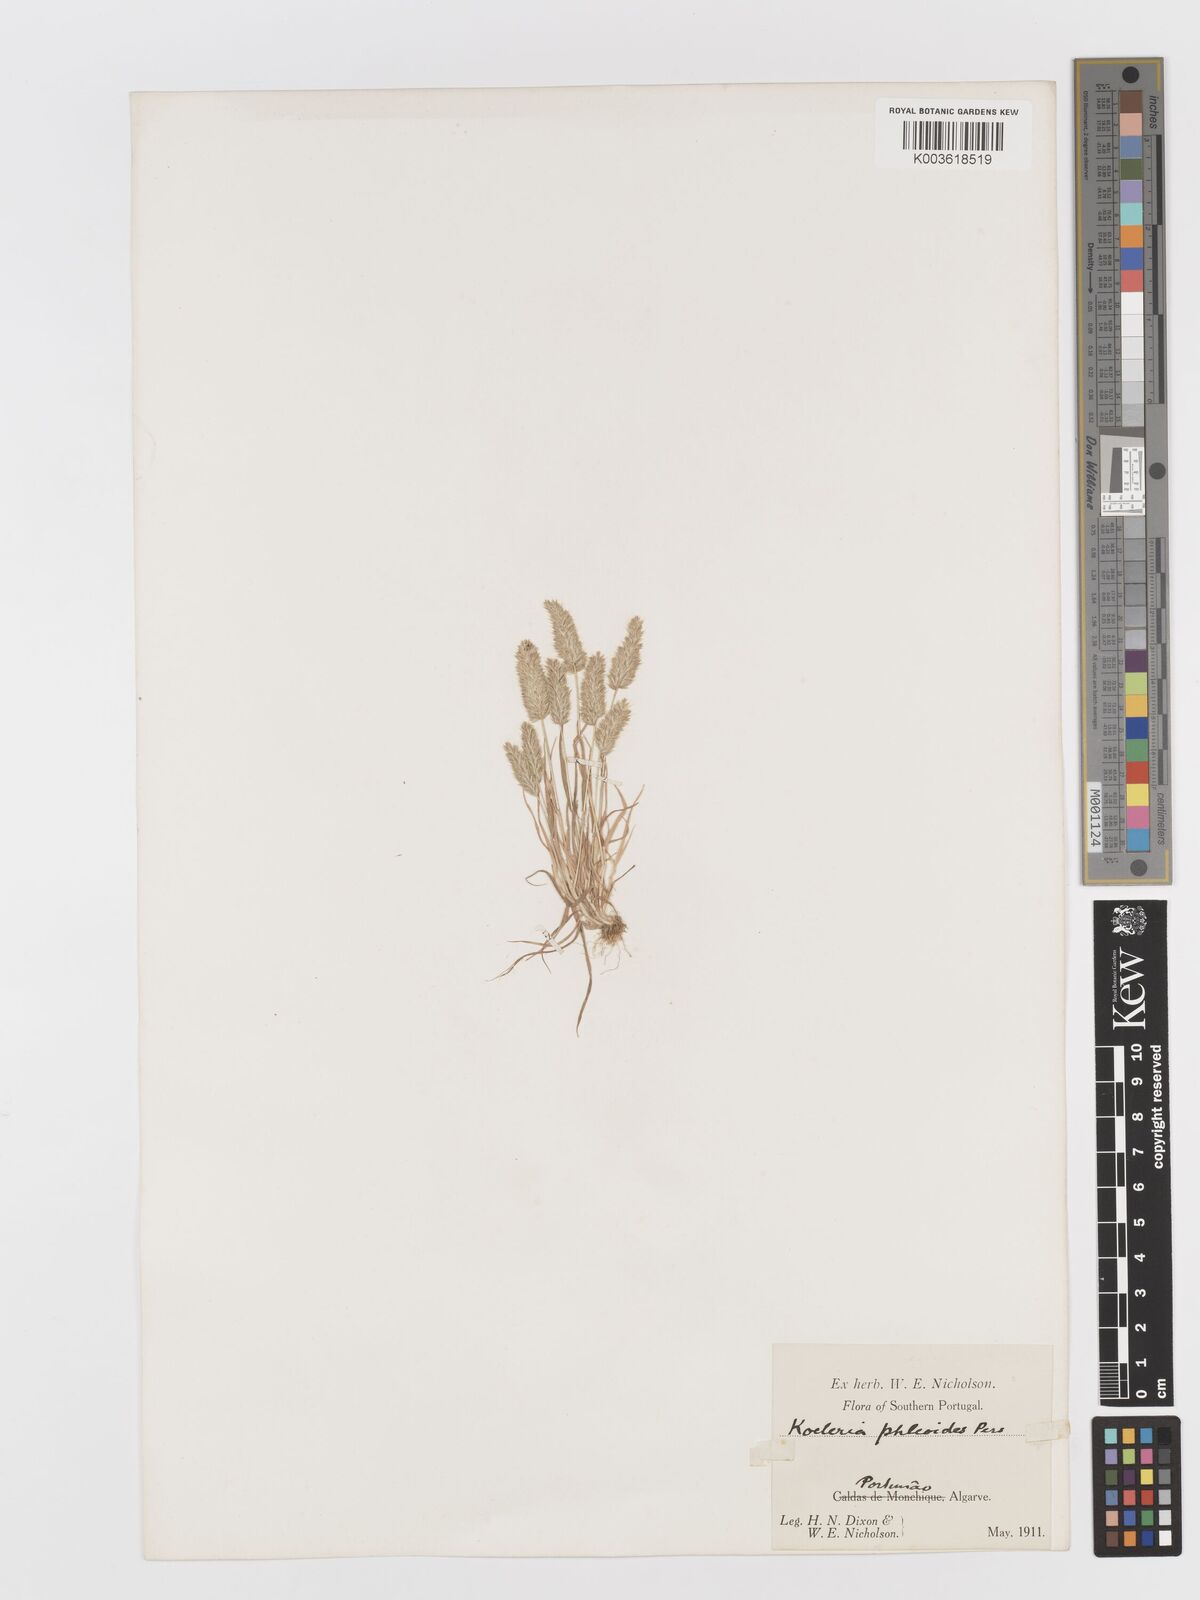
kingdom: Plantae
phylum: Tracheophyta
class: Liliopsida
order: Poales
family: Poaceae
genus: Rostraria
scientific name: Rostraria cristata
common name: Mediterranean hair-grass
